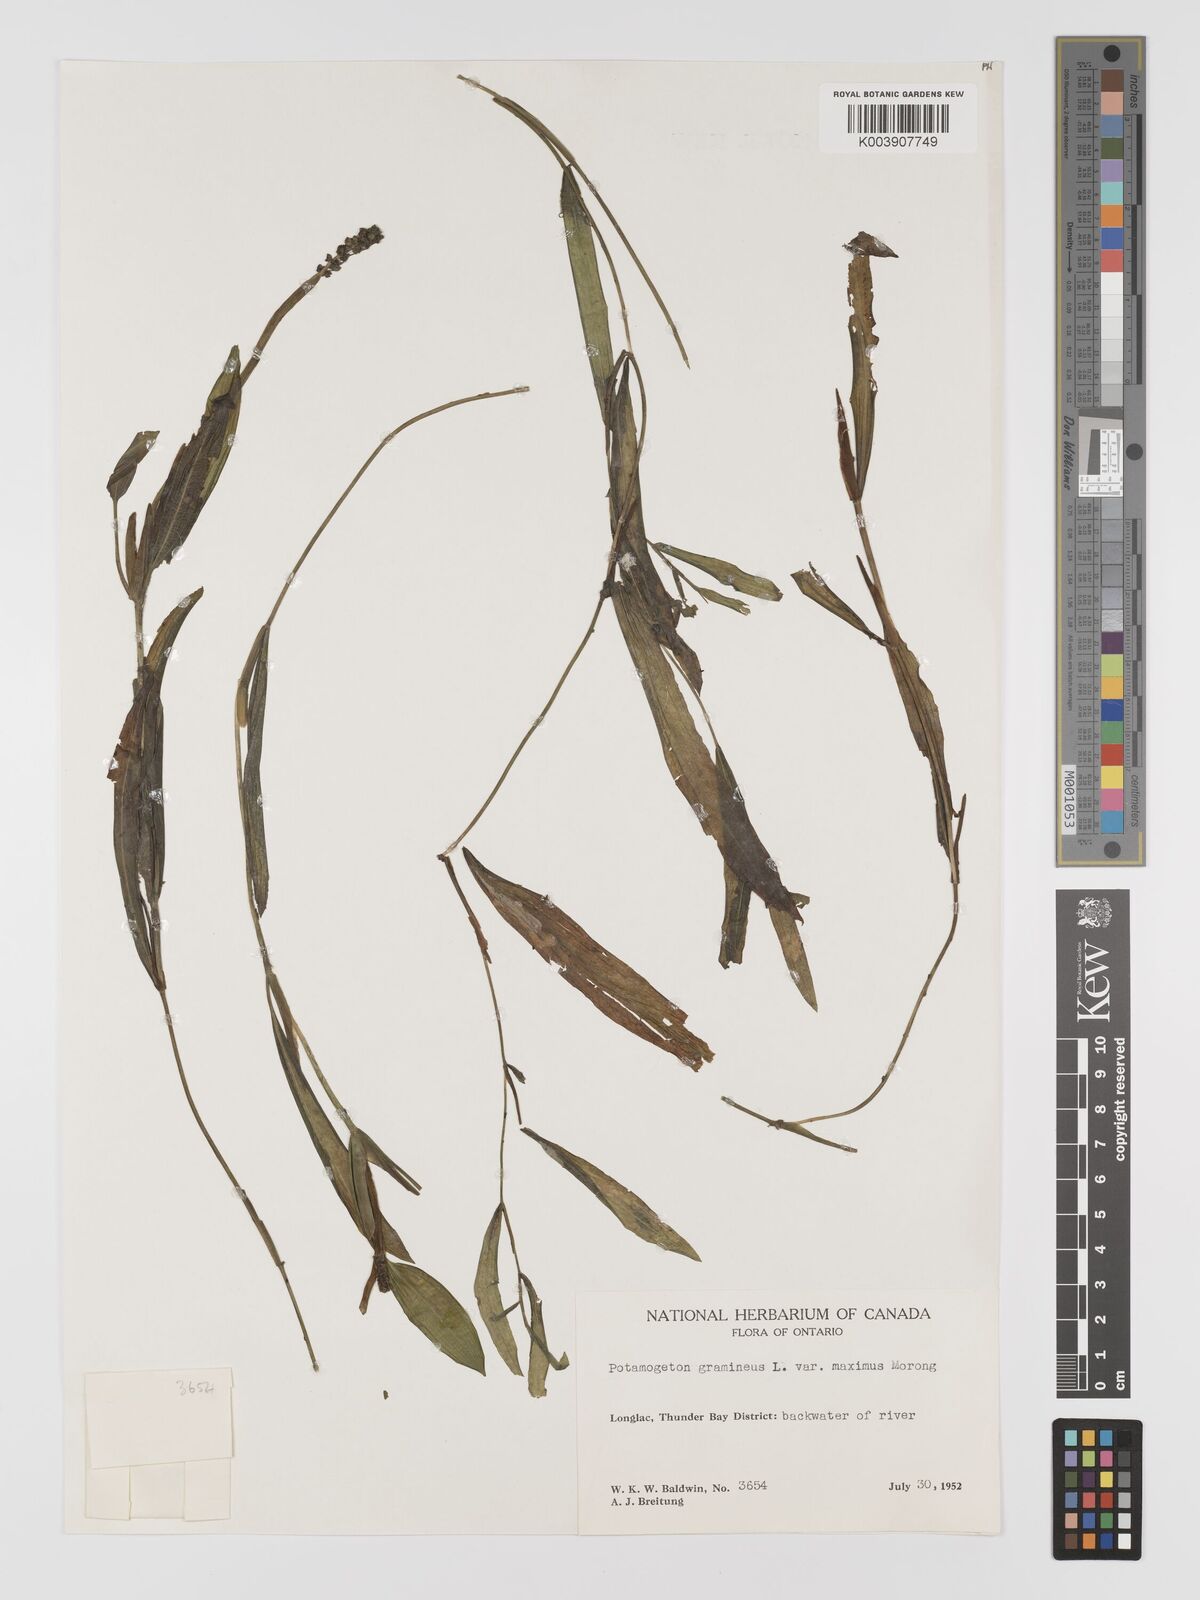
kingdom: Plantae
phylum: Tracheophyta
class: Liliopsida
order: Alismatales
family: Potamogetonaceae
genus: Potamogeton
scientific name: Potamogeton gramineus
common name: Various-leaved pondweed
